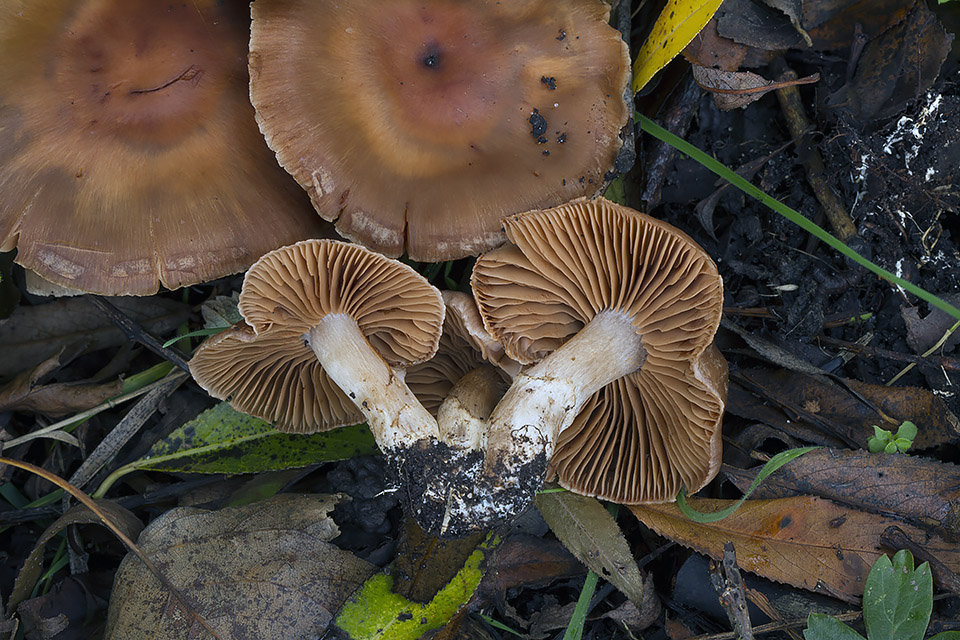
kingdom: Fungi
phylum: Basidiomycota
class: Agaricomycetes
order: Agaricales
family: Cortinariaceae
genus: Cortinarius
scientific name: Cortinarius
